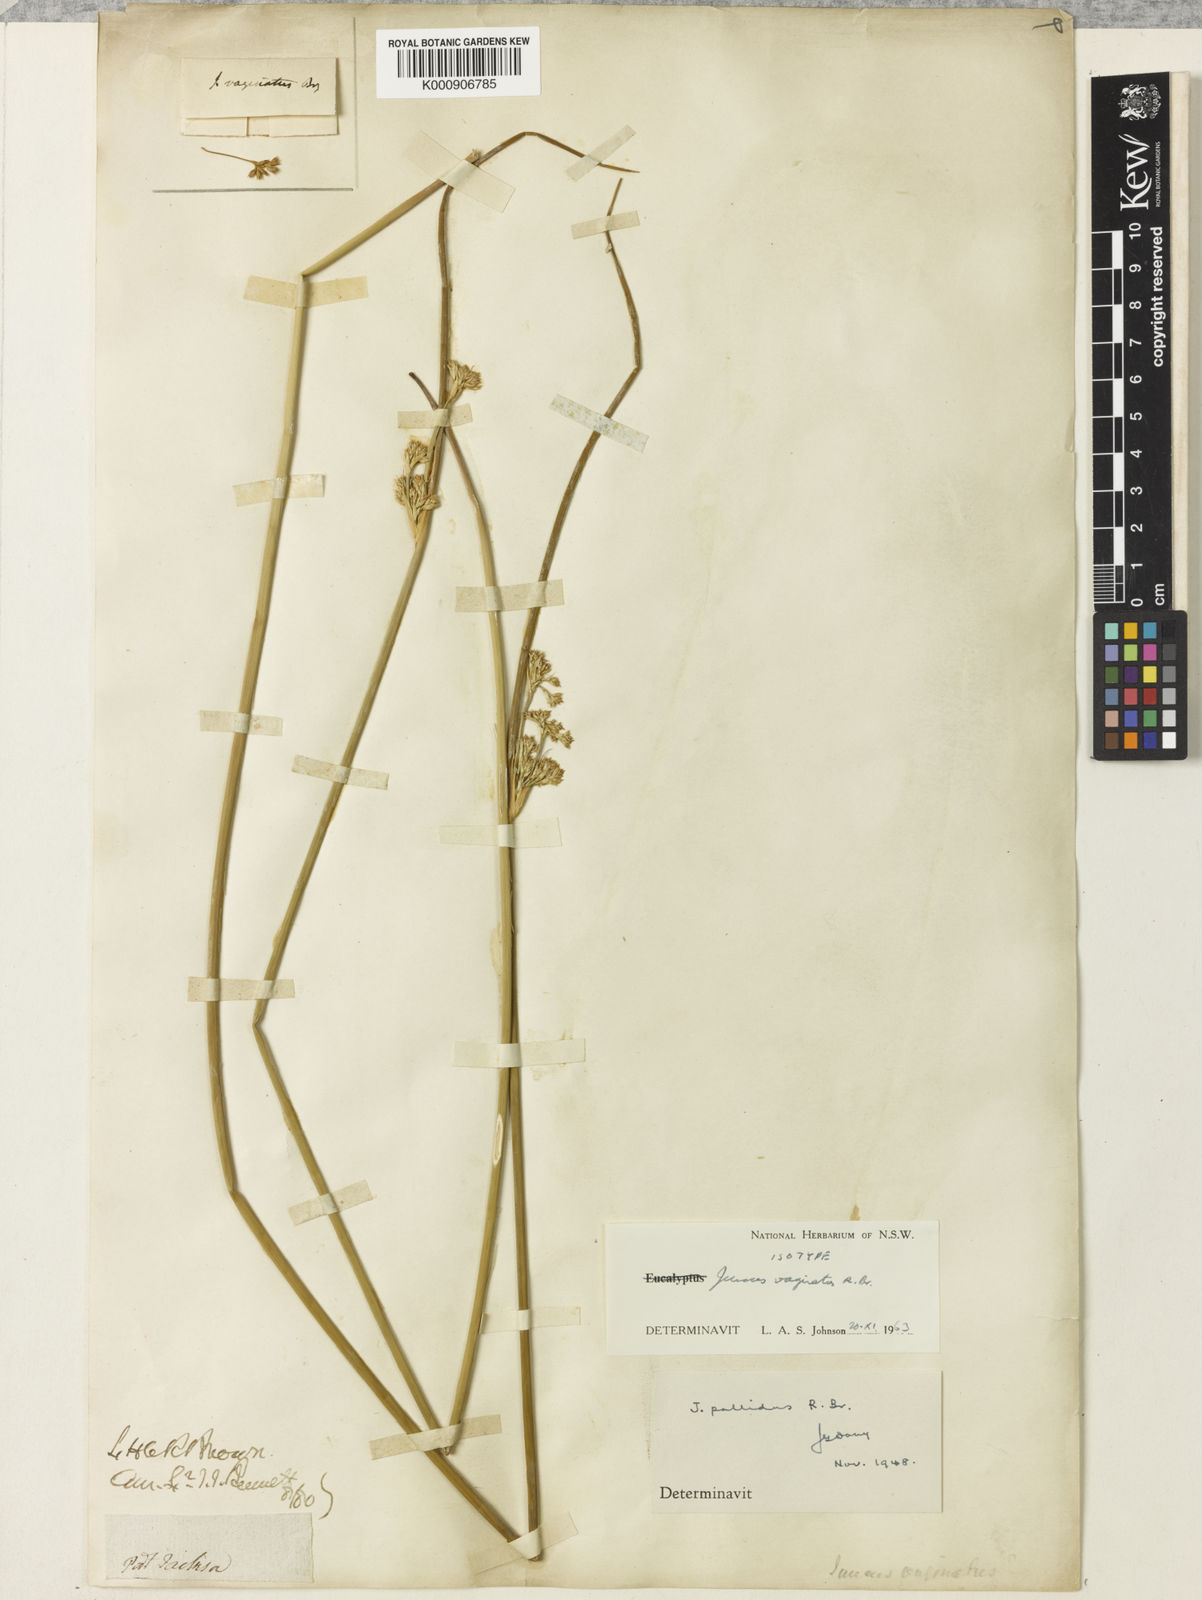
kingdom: Plantae
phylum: Tracheophyta
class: Liliopsida
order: Poales
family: Juncaceae
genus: Juncus
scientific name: Juncus vaginatus
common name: Clustered rush
